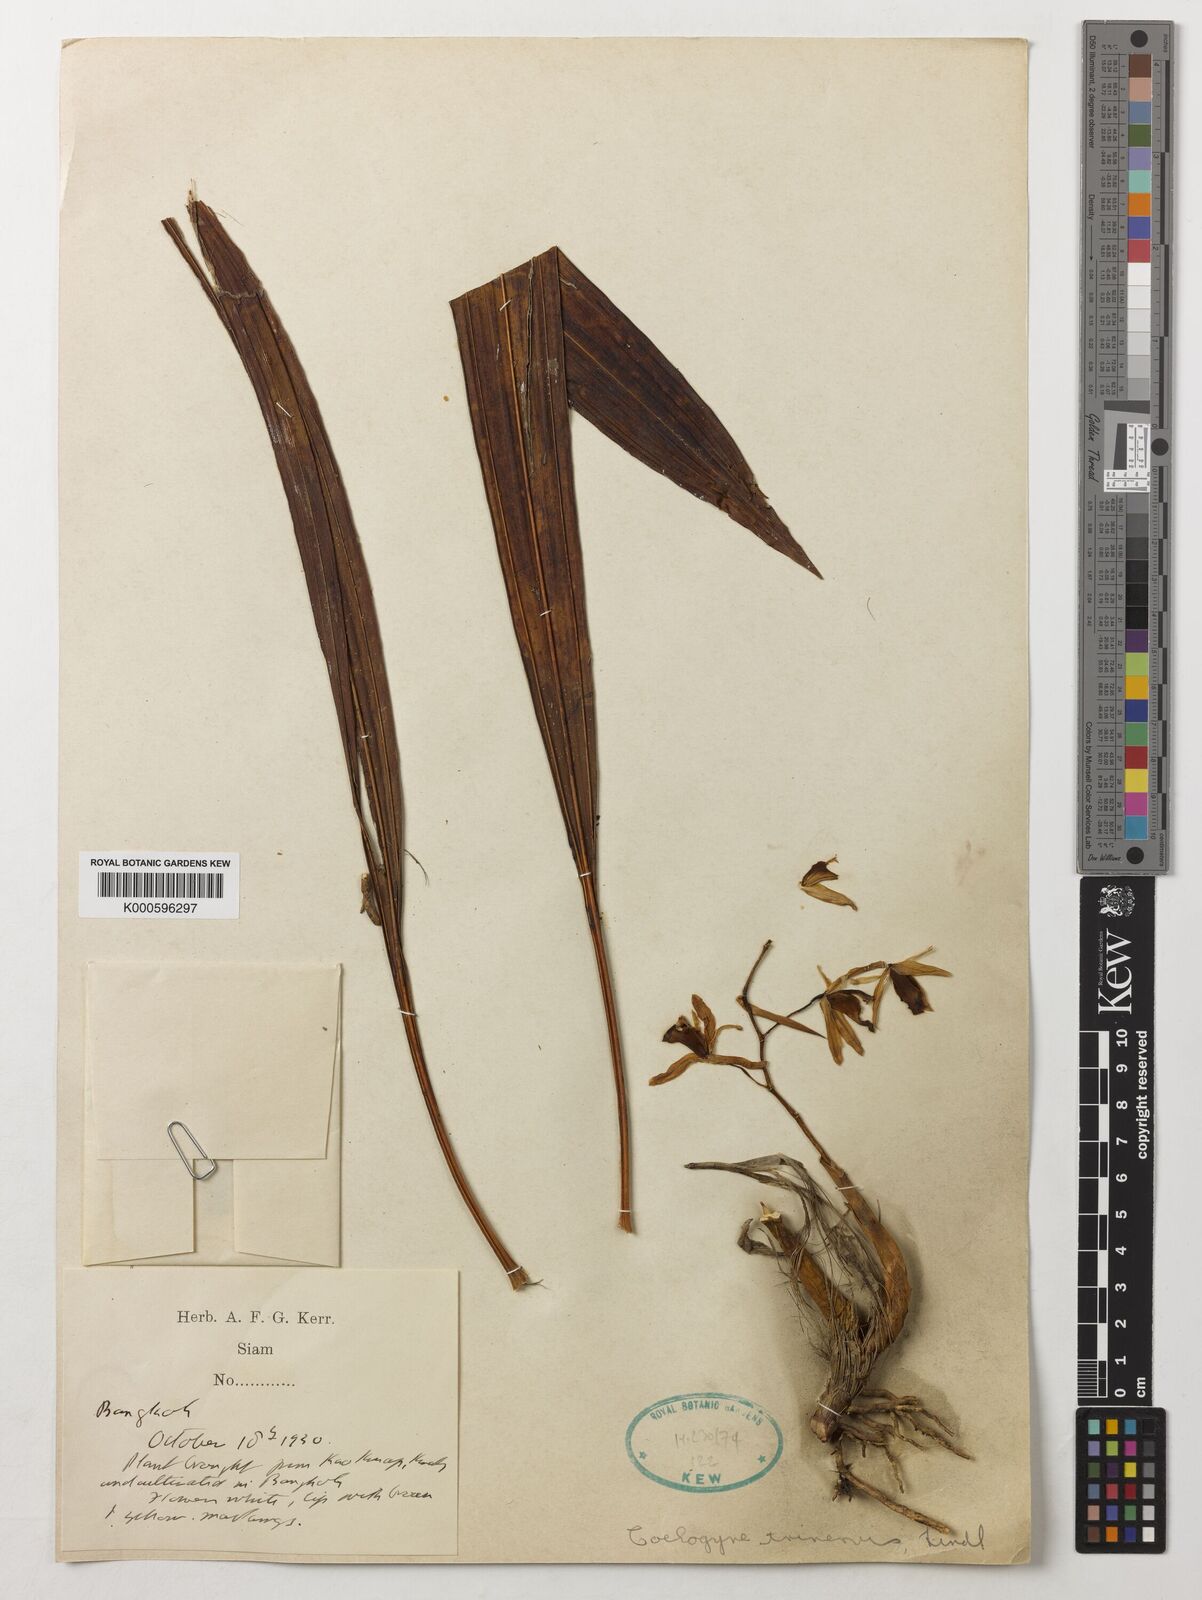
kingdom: Plantae
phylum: Tracheophyta
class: Liliopsida
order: Asparagales
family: Orchidaceae
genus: Coelogyne
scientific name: Coelogyne trinervis
